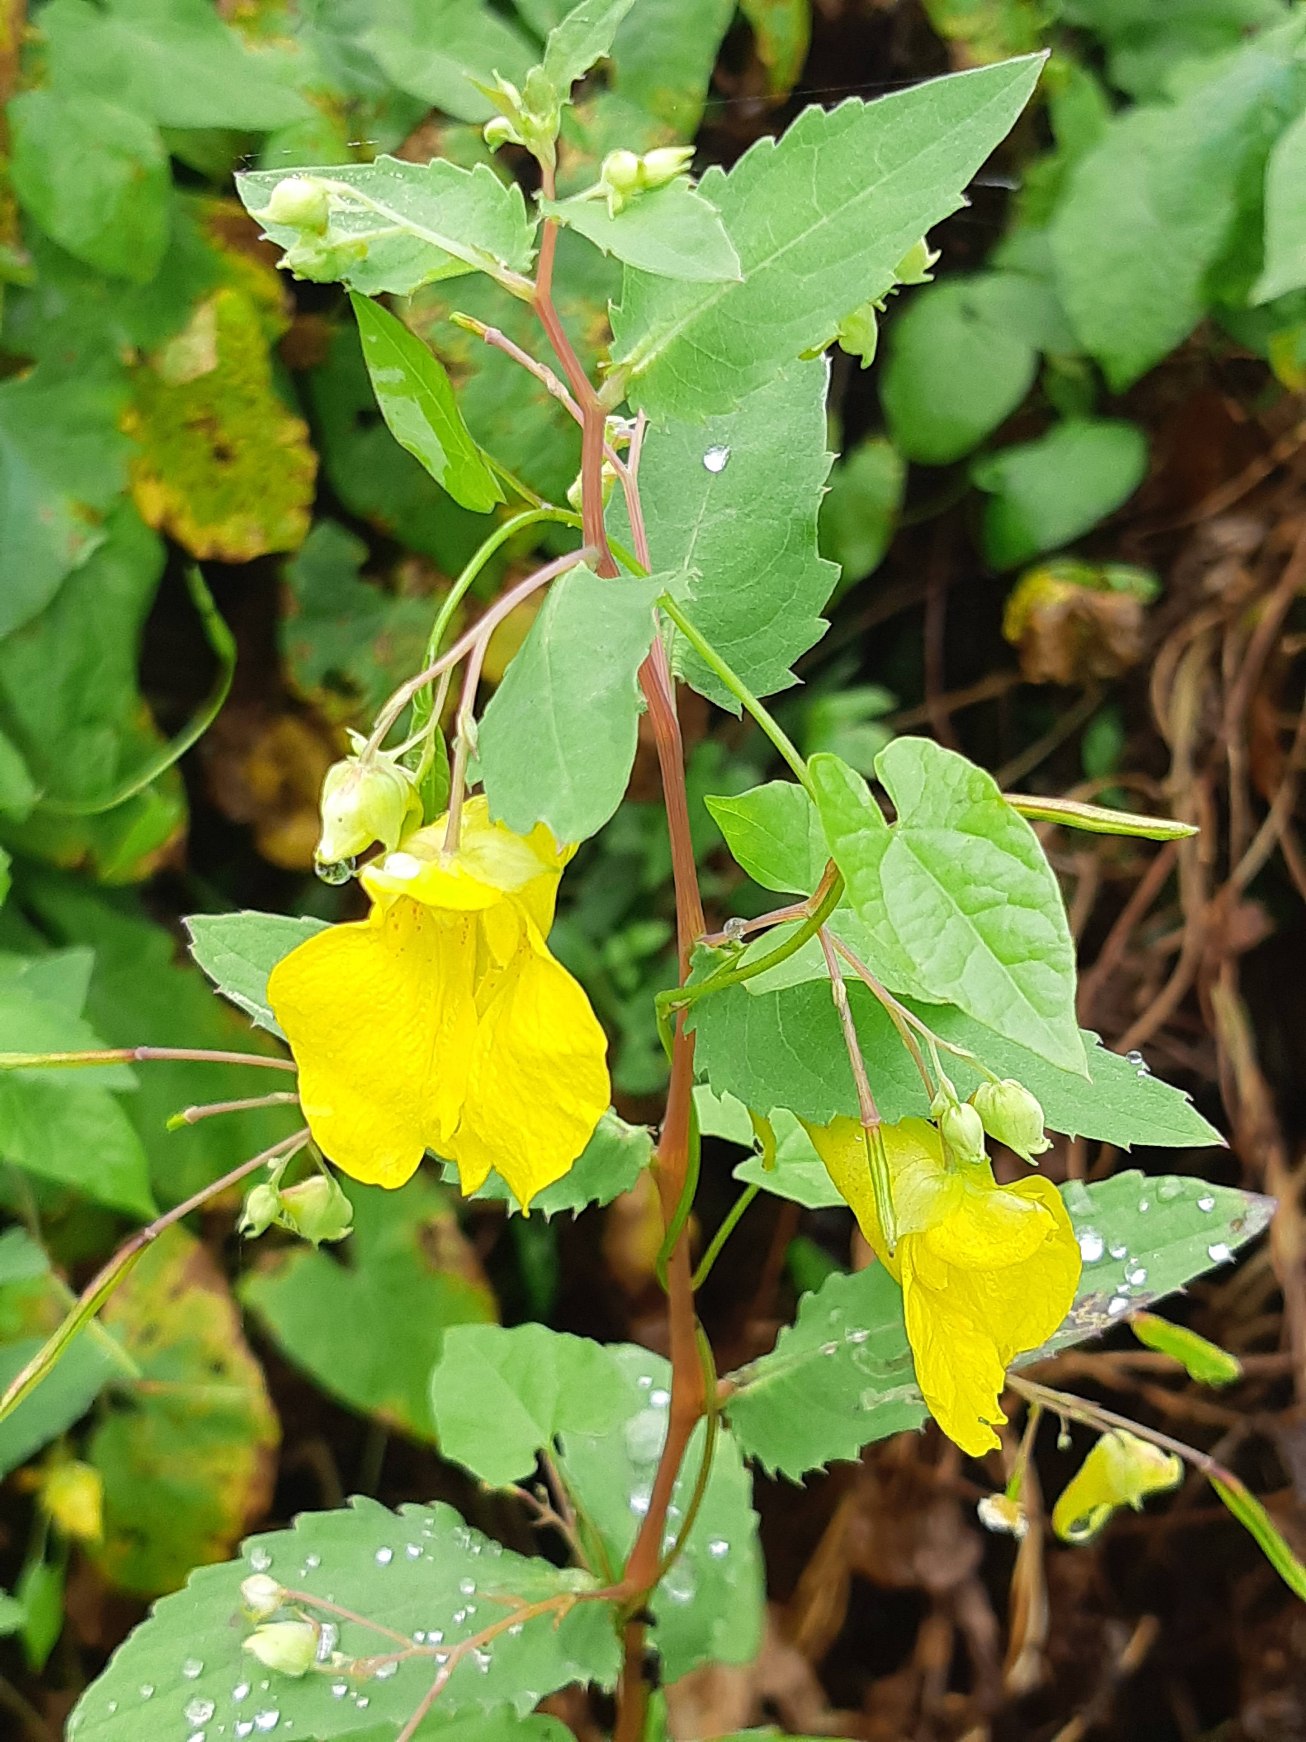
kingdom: Plantae
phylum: Tracheophyta
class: Magnoliopsida
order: Ericales
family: Balsaminaceae
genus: Impatiens
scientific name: Impatiens noli-tangere
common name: Spring-balsamin
